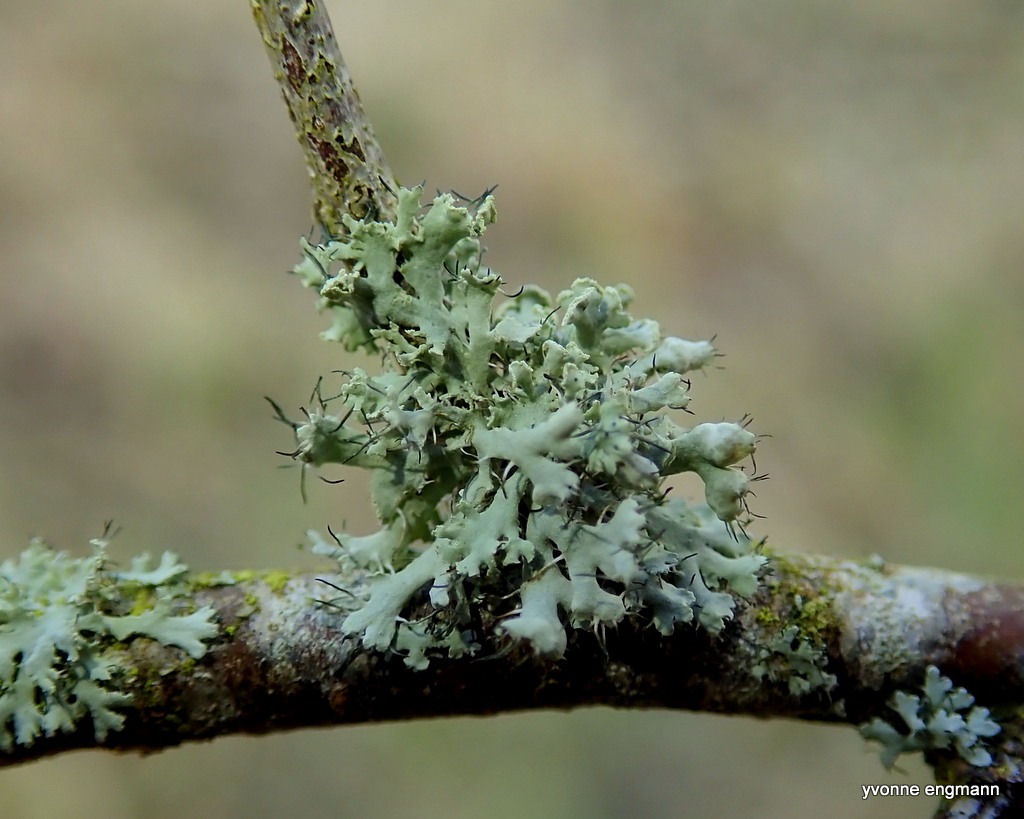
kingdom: Fungi
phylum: Ascomycota
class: Lecanoromycetes
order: Caliciales
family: Physciaceae
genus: Physcia
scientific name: Physcia adscendens
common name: Hætte-rosetlav
